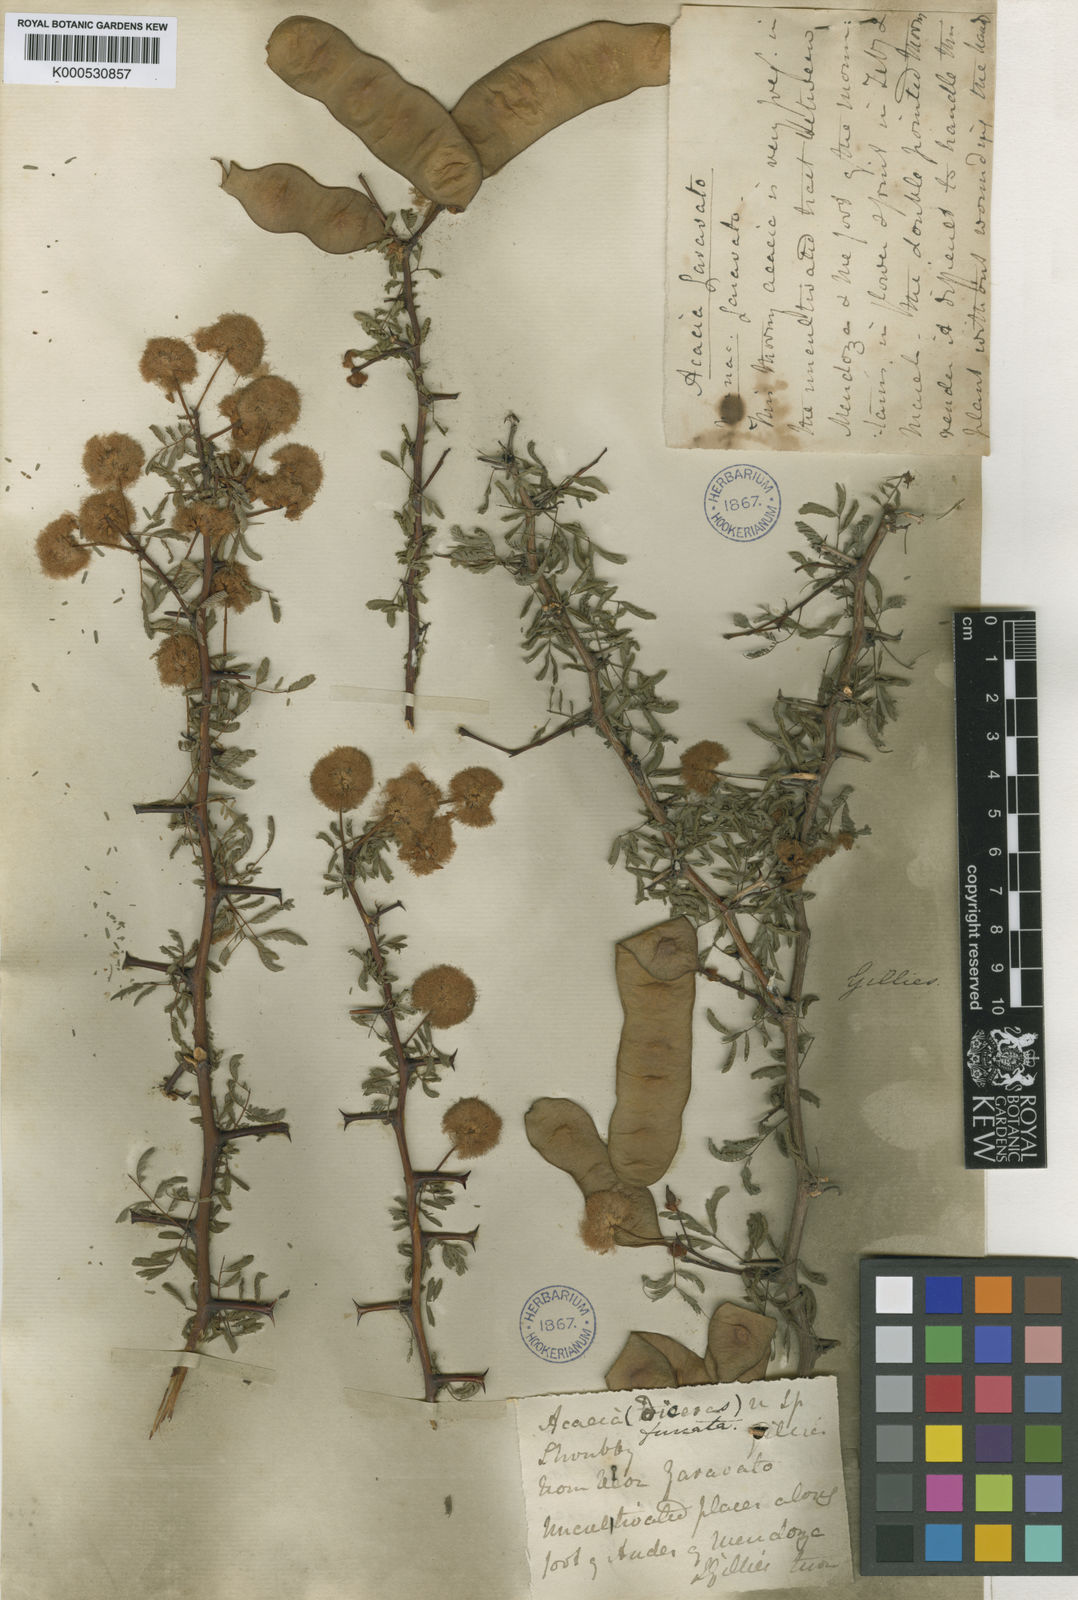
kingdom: Plantae
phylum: Tracheophyta
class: Magnoliopsida
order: Fabales
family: Fabaceae
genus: Senegalia
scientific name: Senegalia gilliesii
